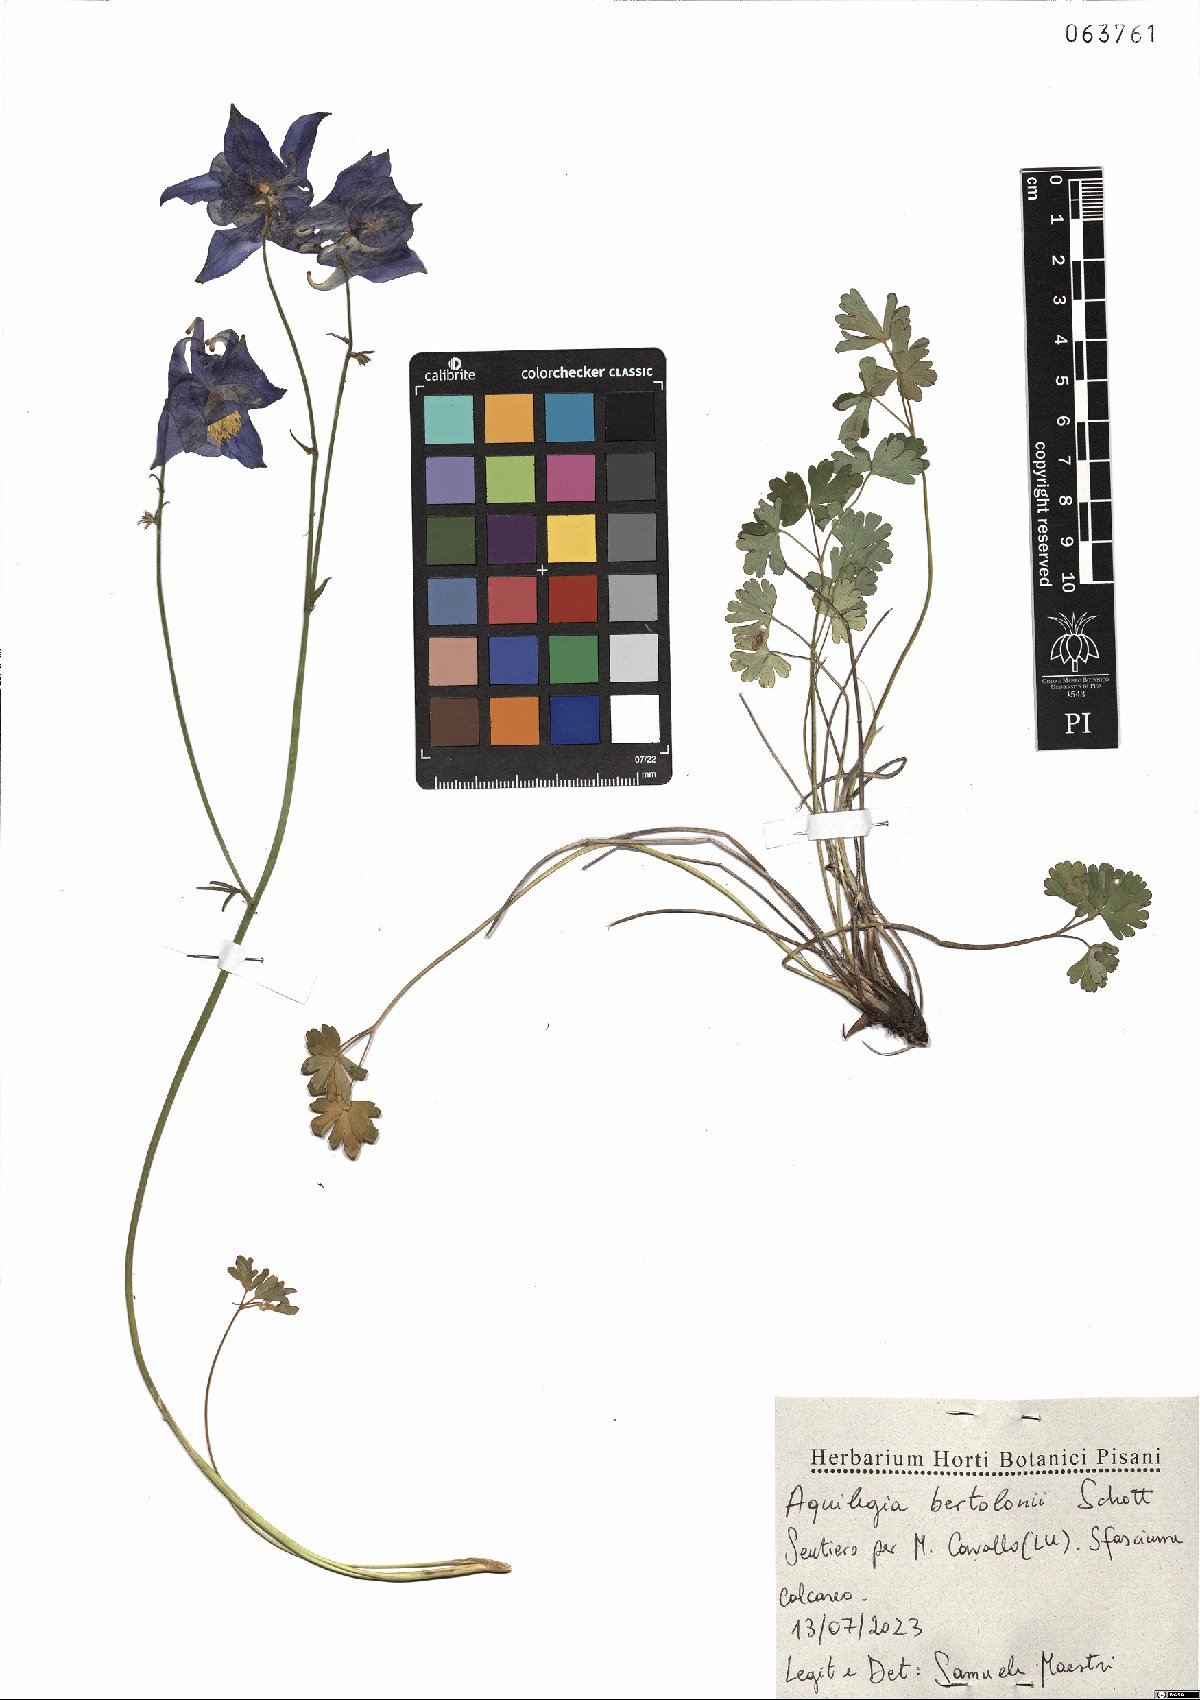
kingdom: Plantae
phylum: Tracheophyta
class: Magnoliopsida
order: Ranunculales
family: Ranunculaceae
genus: Aquilegia
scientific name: Aquilegia bertolonii
